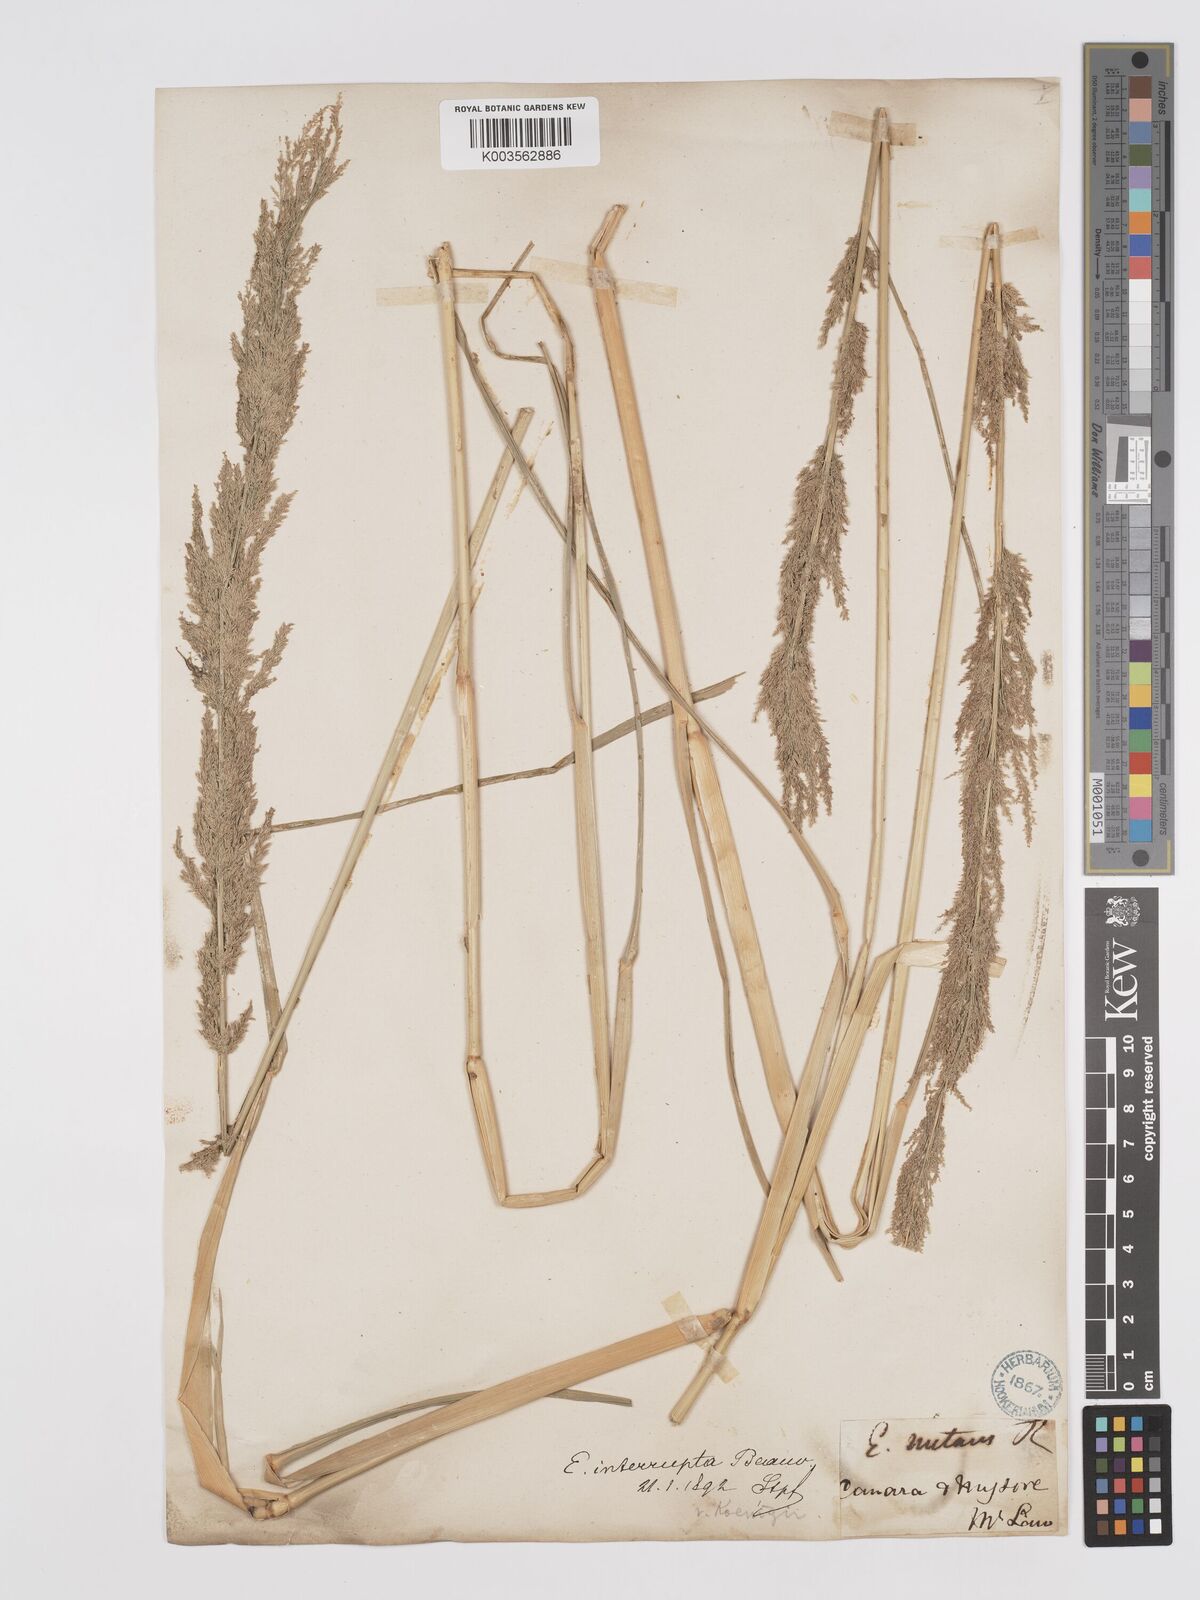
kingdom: Plantae
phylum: Tracheophyta
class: Liliopsida
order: Poales
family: Poaceae
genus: Eragrostis
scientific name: Eragrostis japonica
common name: Pond lovegrass
